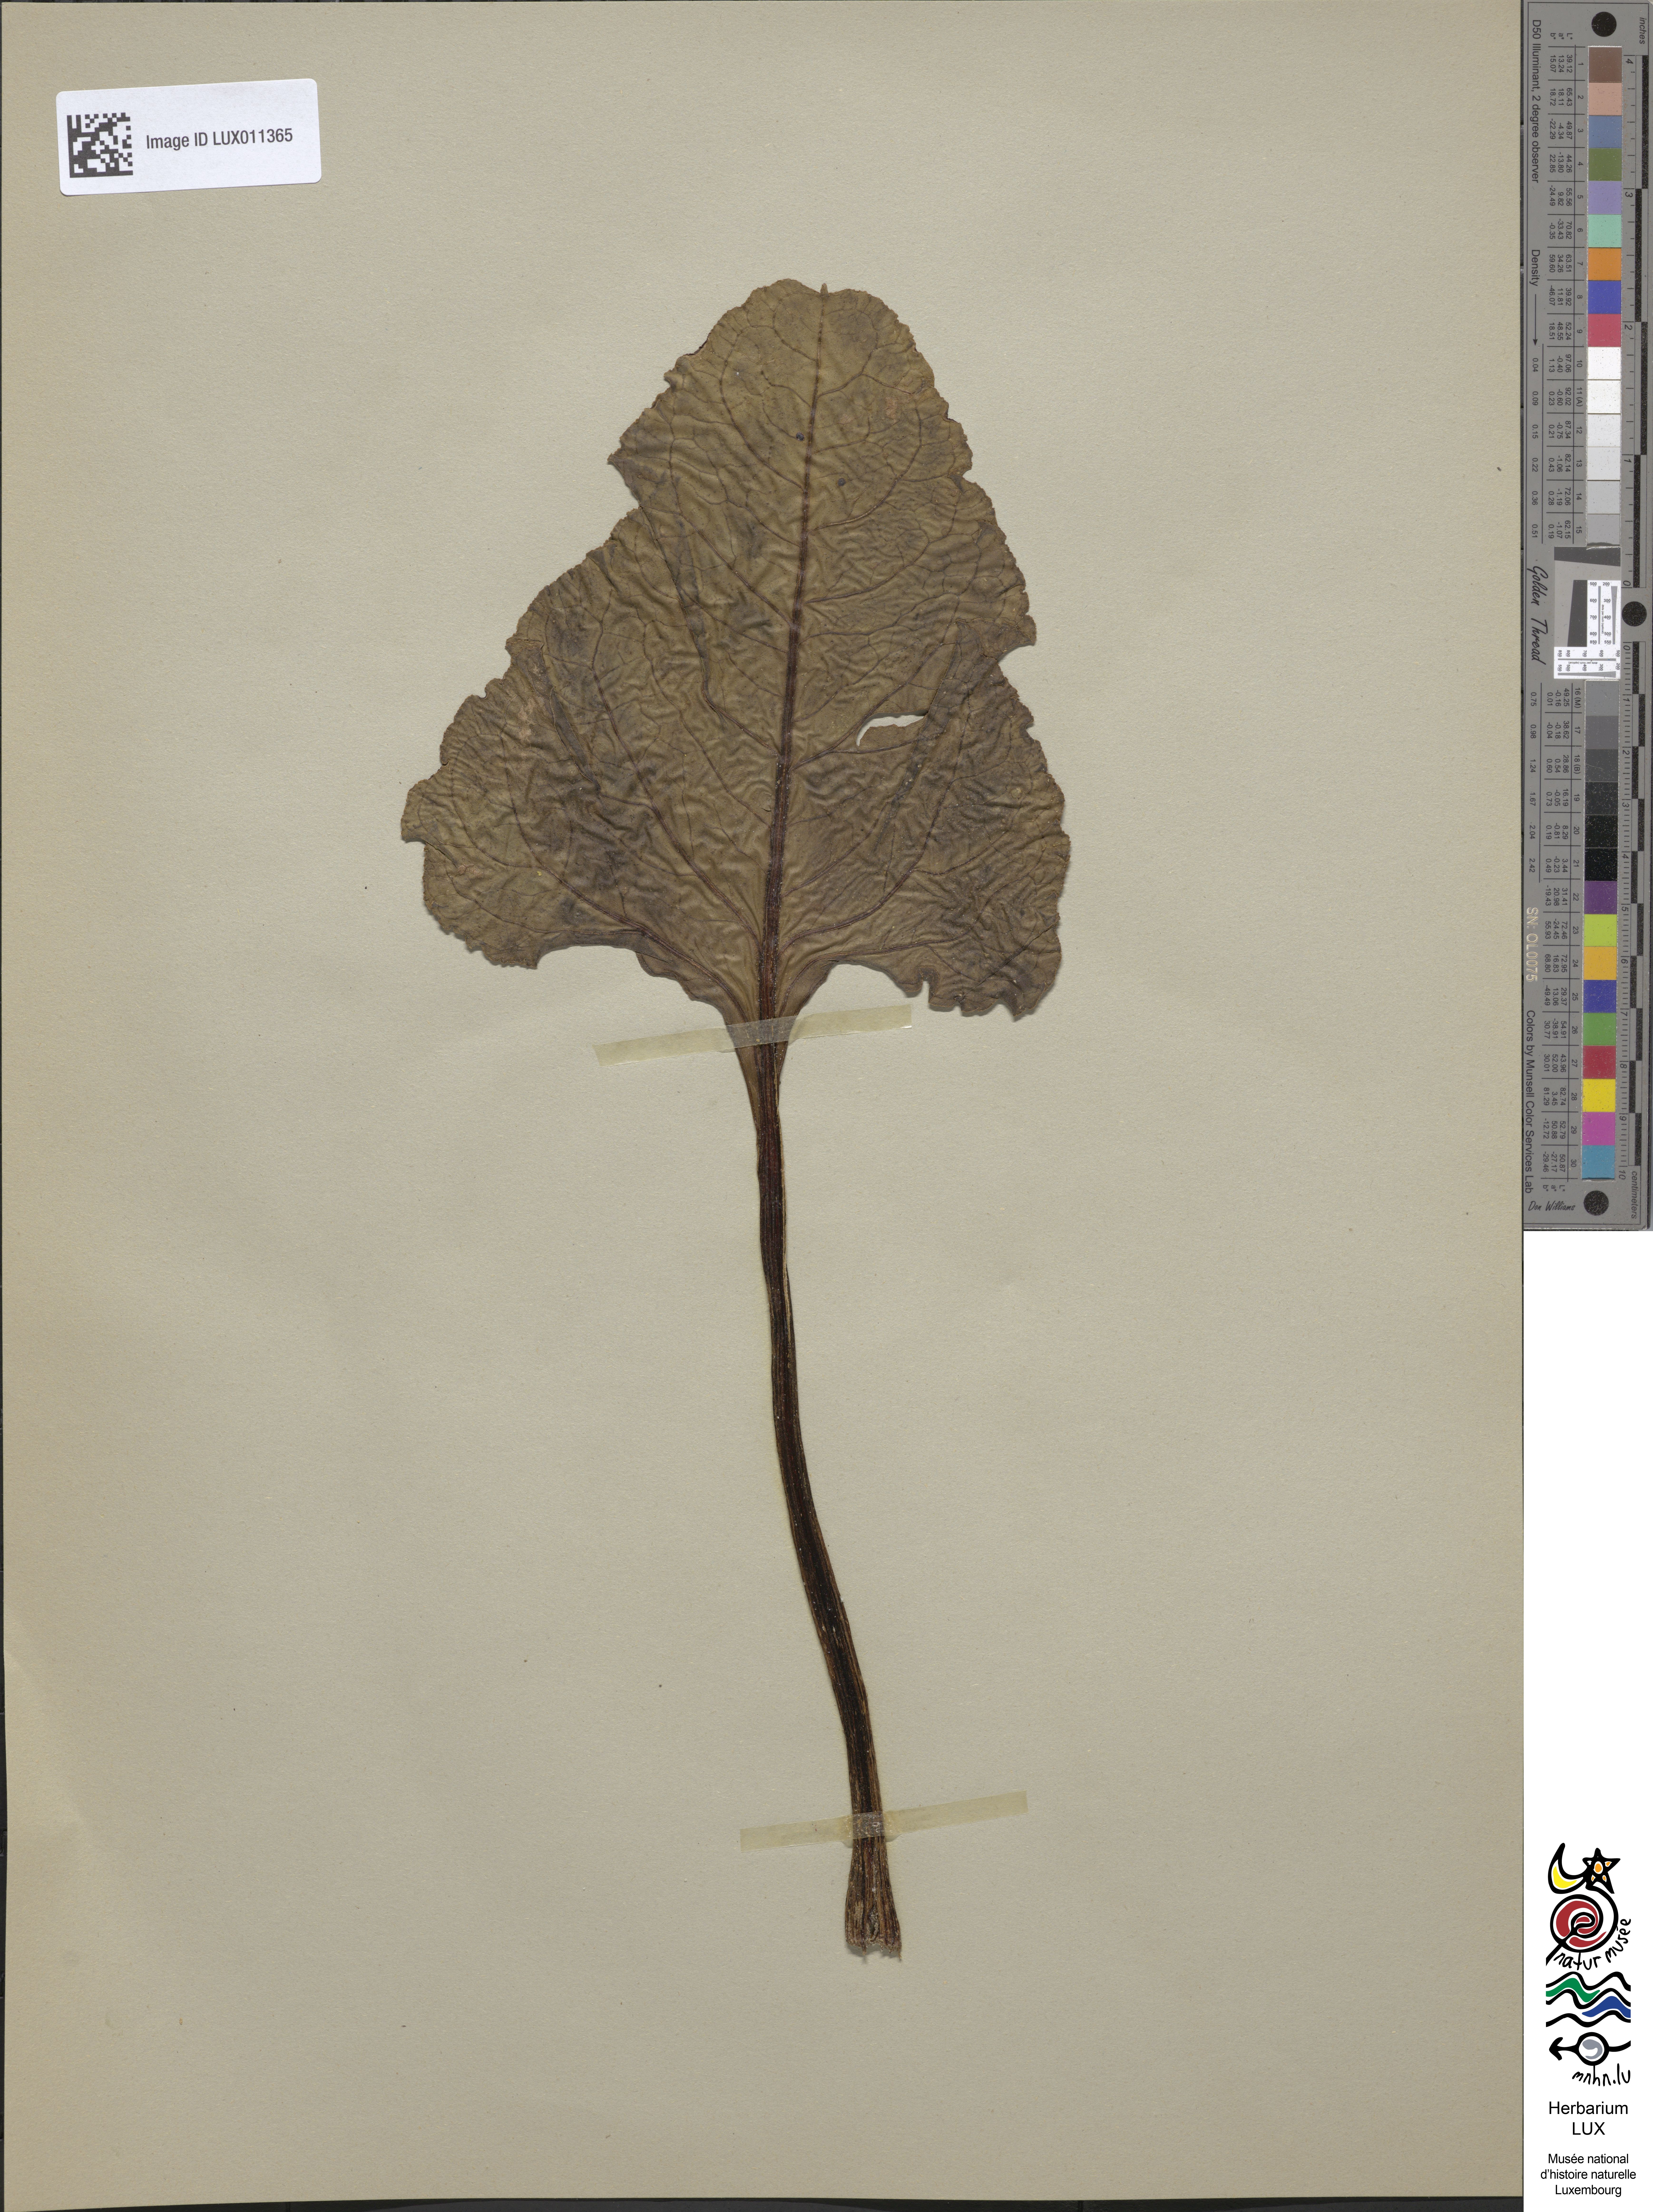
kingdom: Plantae
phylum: Tracheophyta
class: Magnoliopsida
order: Caryophyllales
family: Amaranthaceae
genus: Beta
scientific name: Beta maritima
